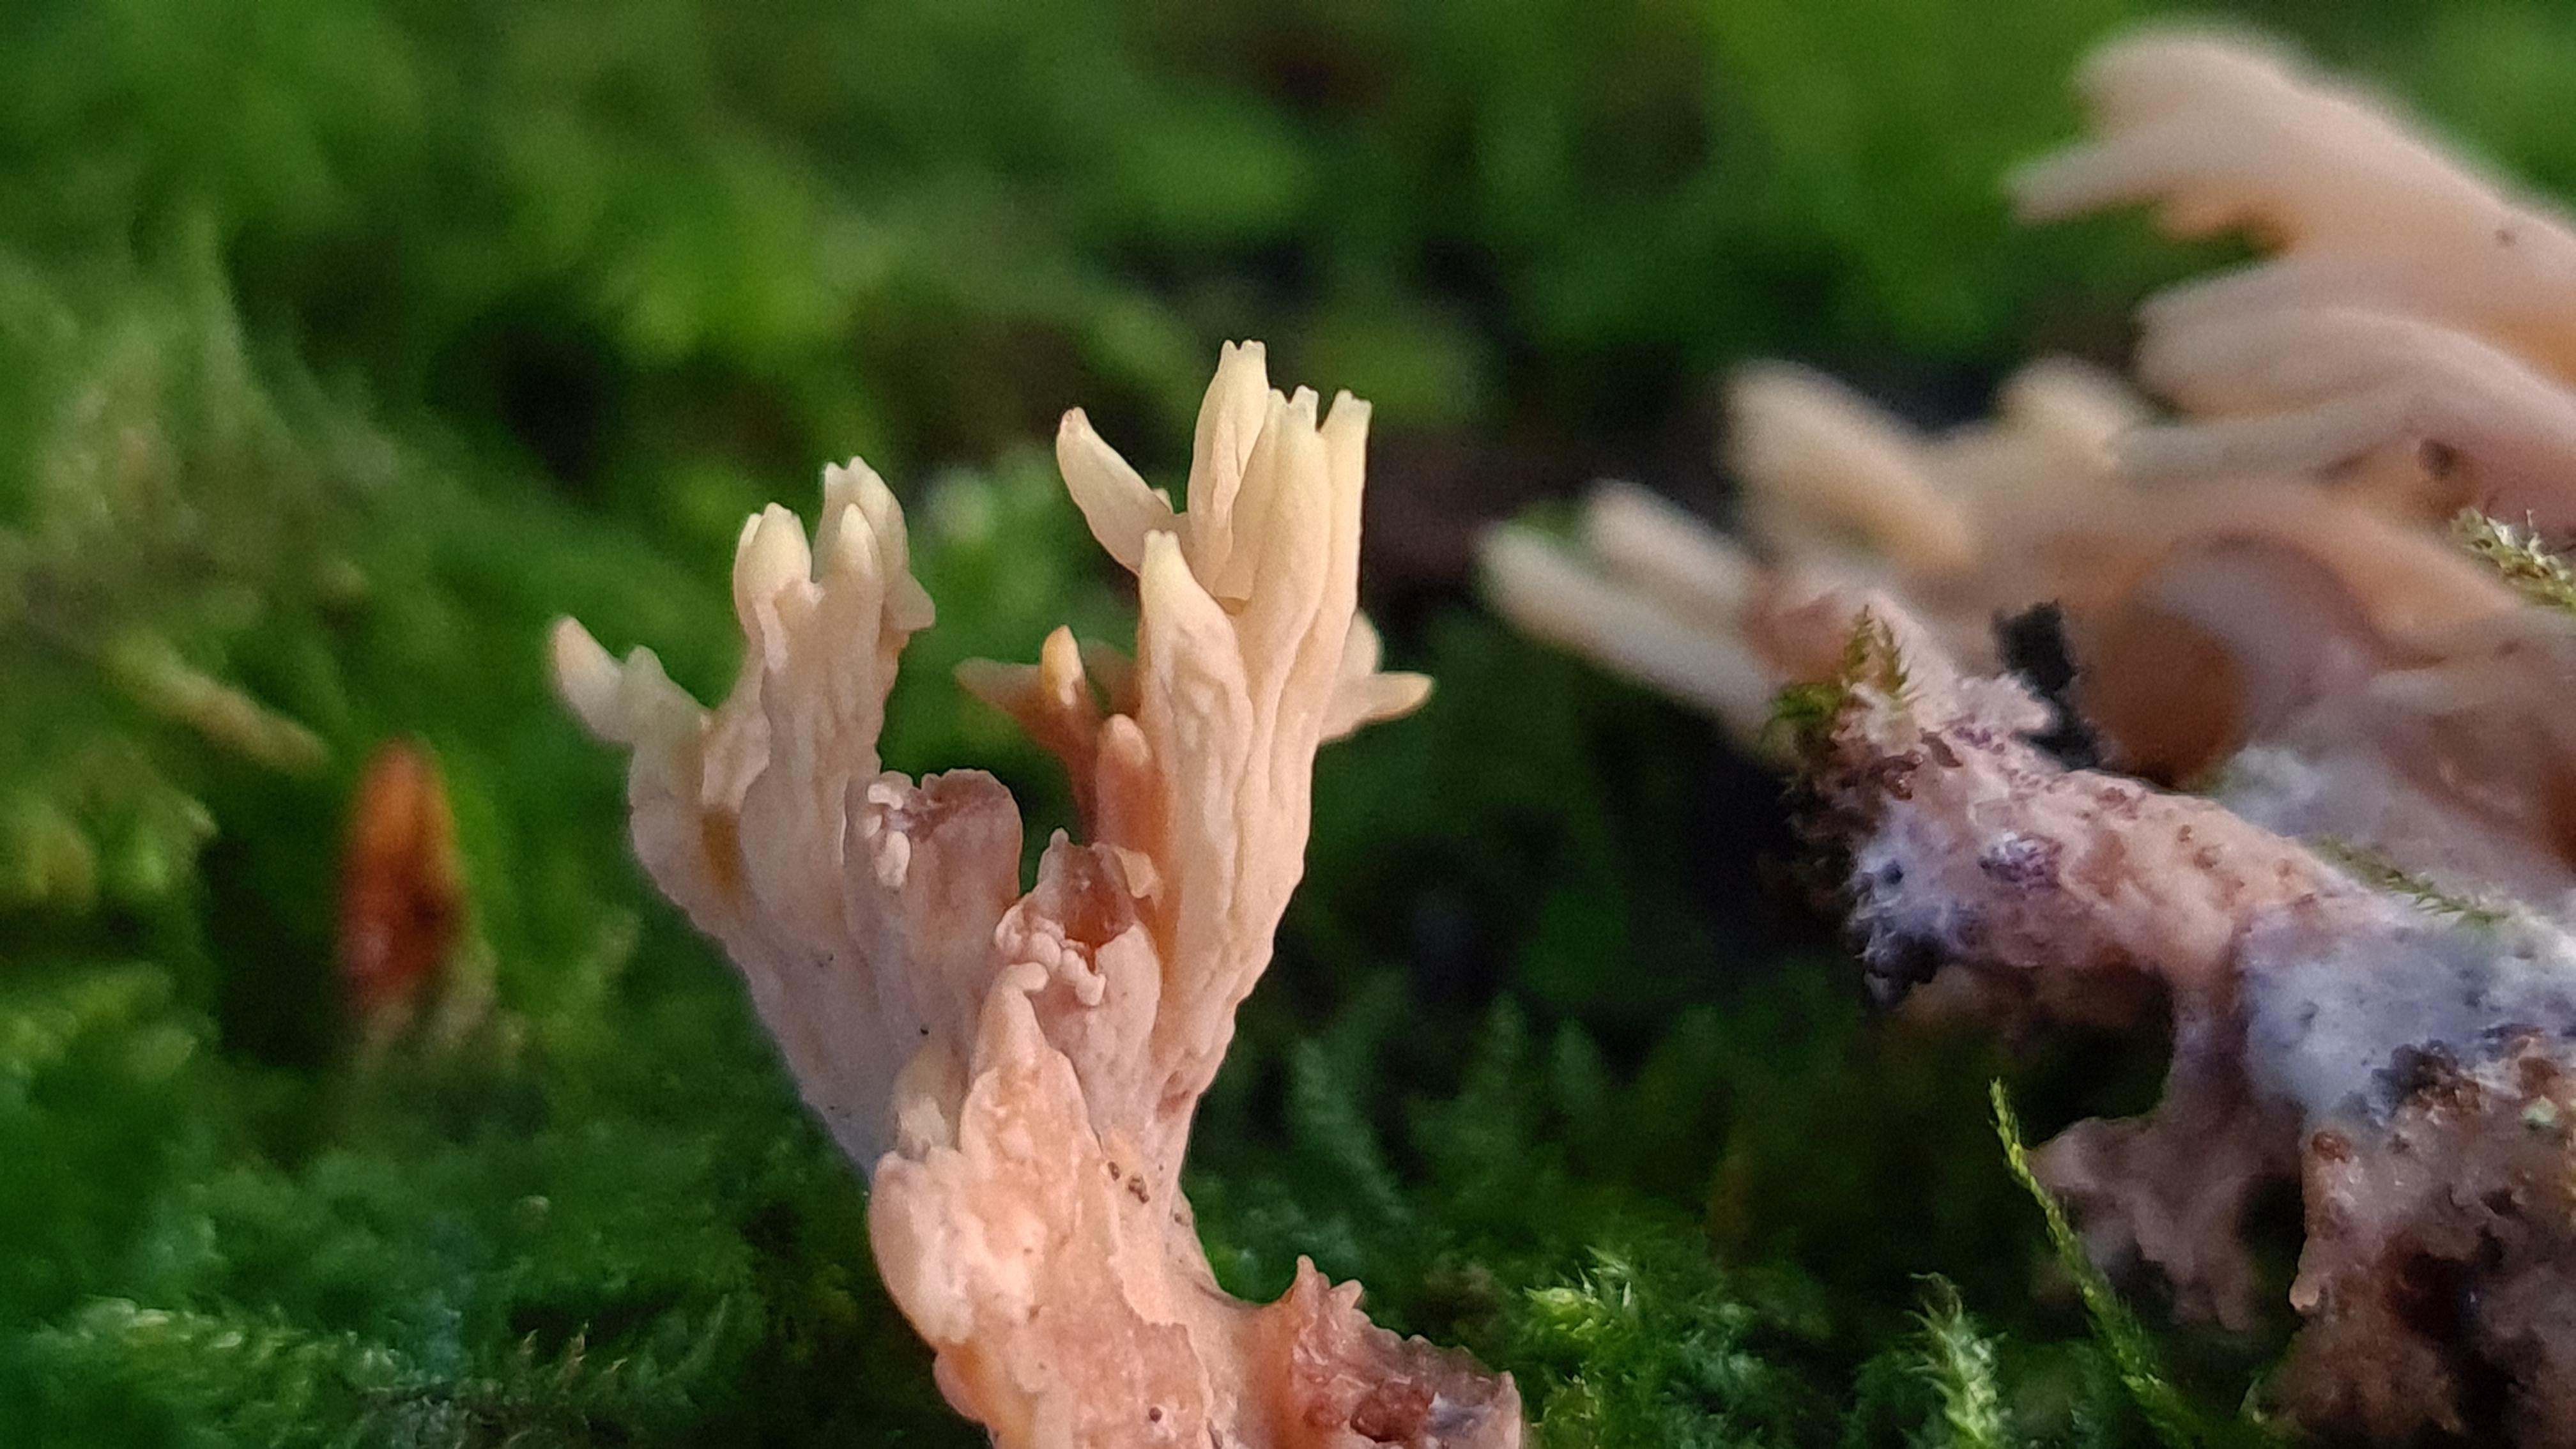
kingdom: Fungi
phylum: Basidiomycota
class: Agaricomycetes
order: Gomphales
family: Gomphaceae
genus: Ramaria
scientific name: Ramaria stricta
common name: rank koralsvamp
